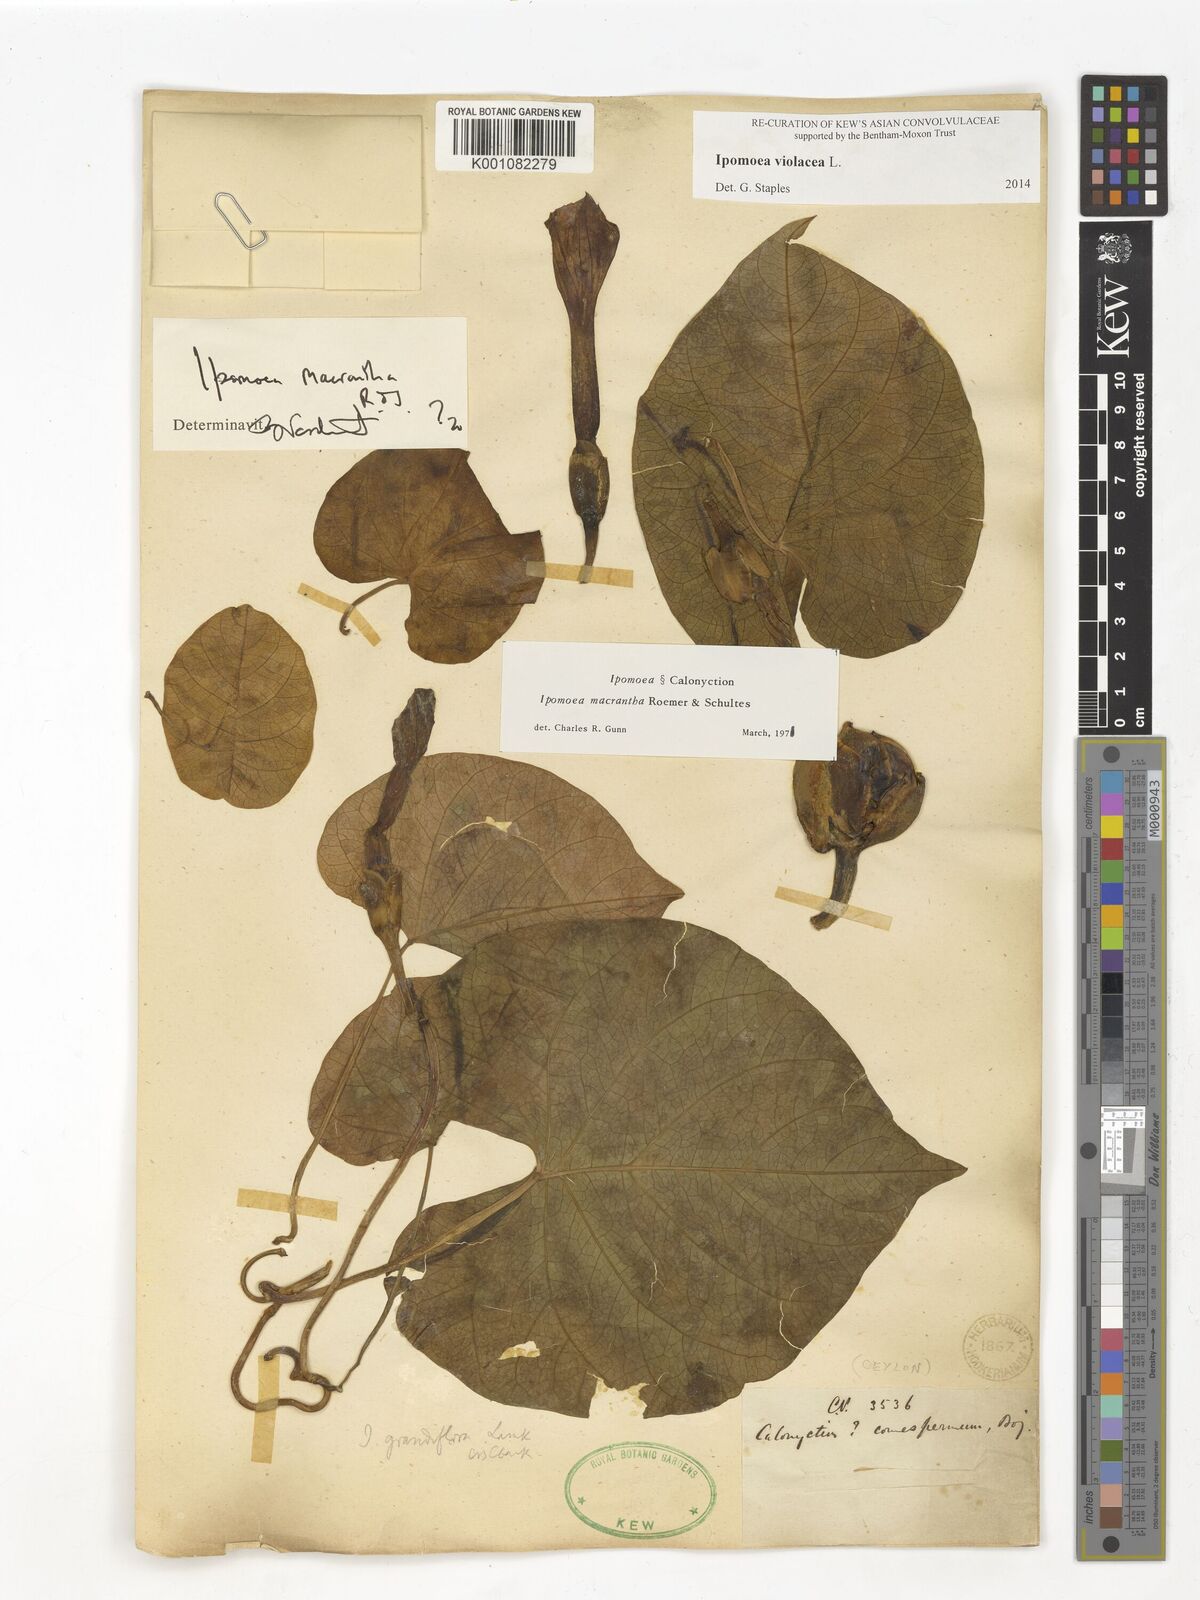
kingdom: Plantae
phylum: Tracheophyta
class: Magnoliopsida
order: Solanales
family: Convolvulaceae
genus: Ipomoea
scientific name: Ipomoea violacea
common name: Beach moonflower
